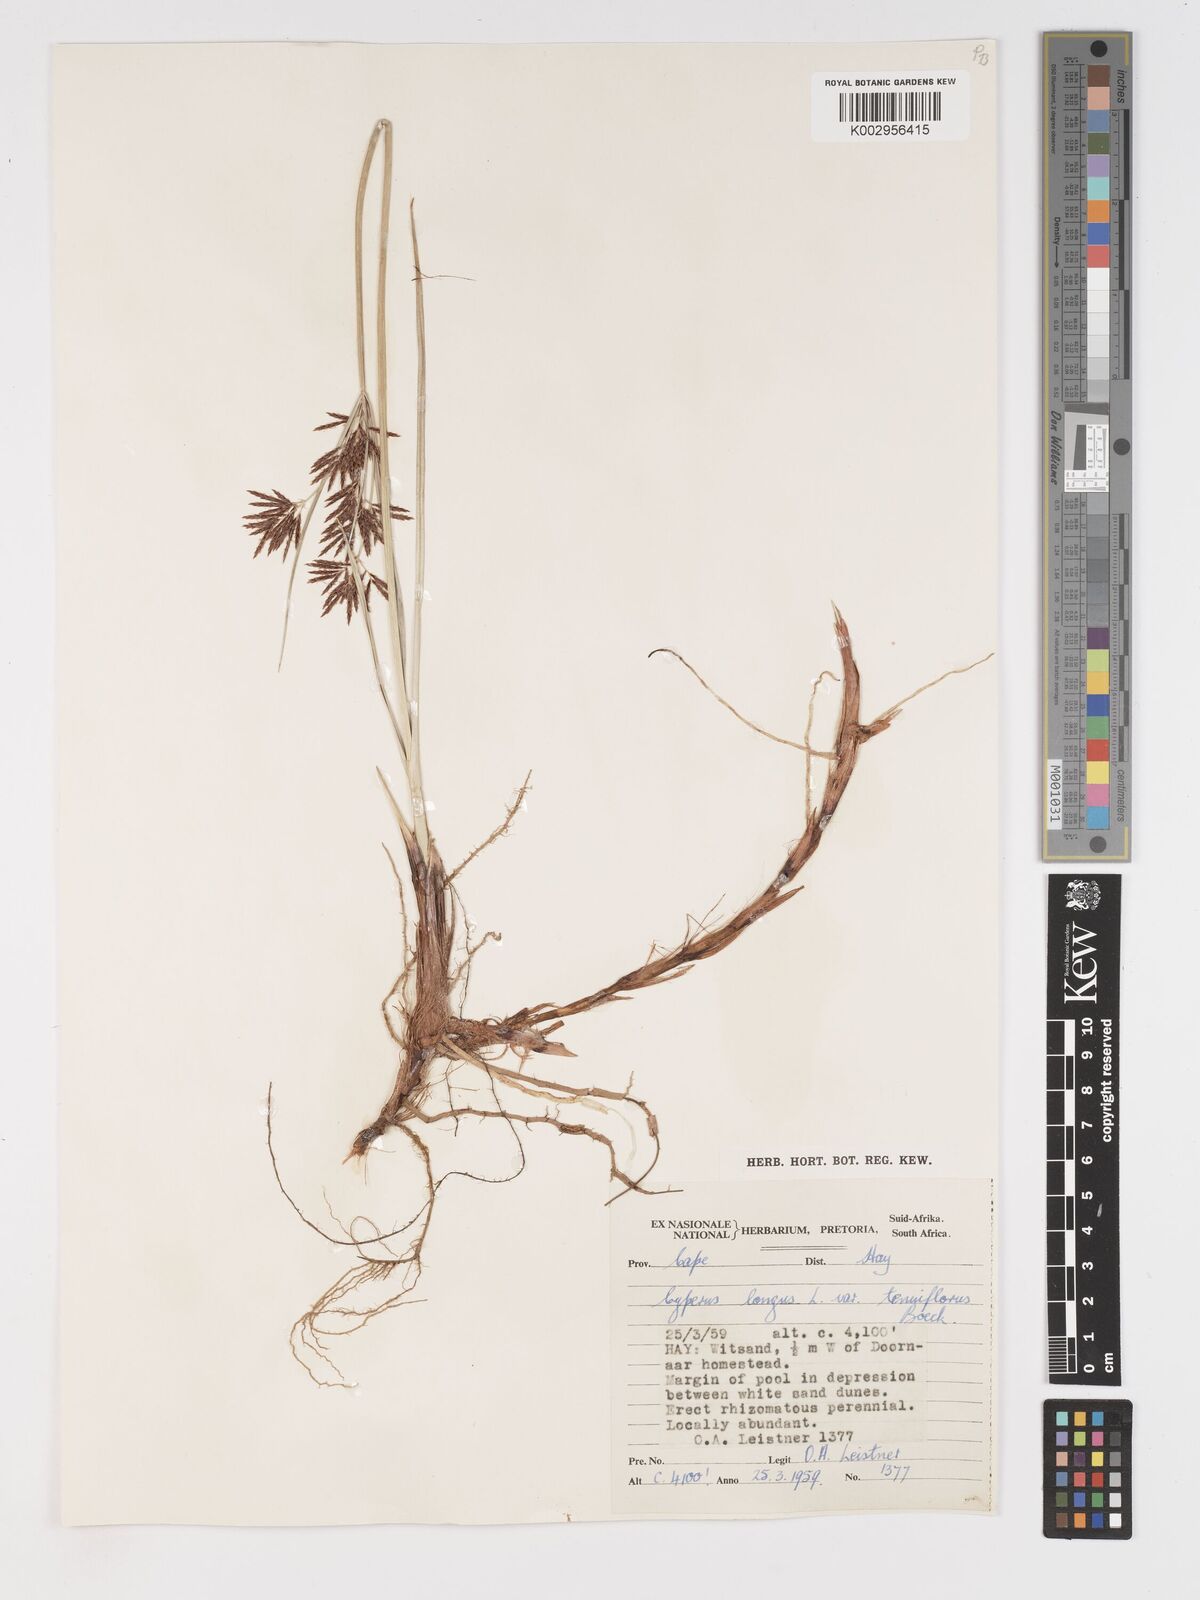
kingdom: Plantae
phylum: Tracheophyta
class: Liliopsida
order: Poales
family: Cyperaceae
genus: Cyperus
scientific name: Cyperus longus
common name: Galingale
